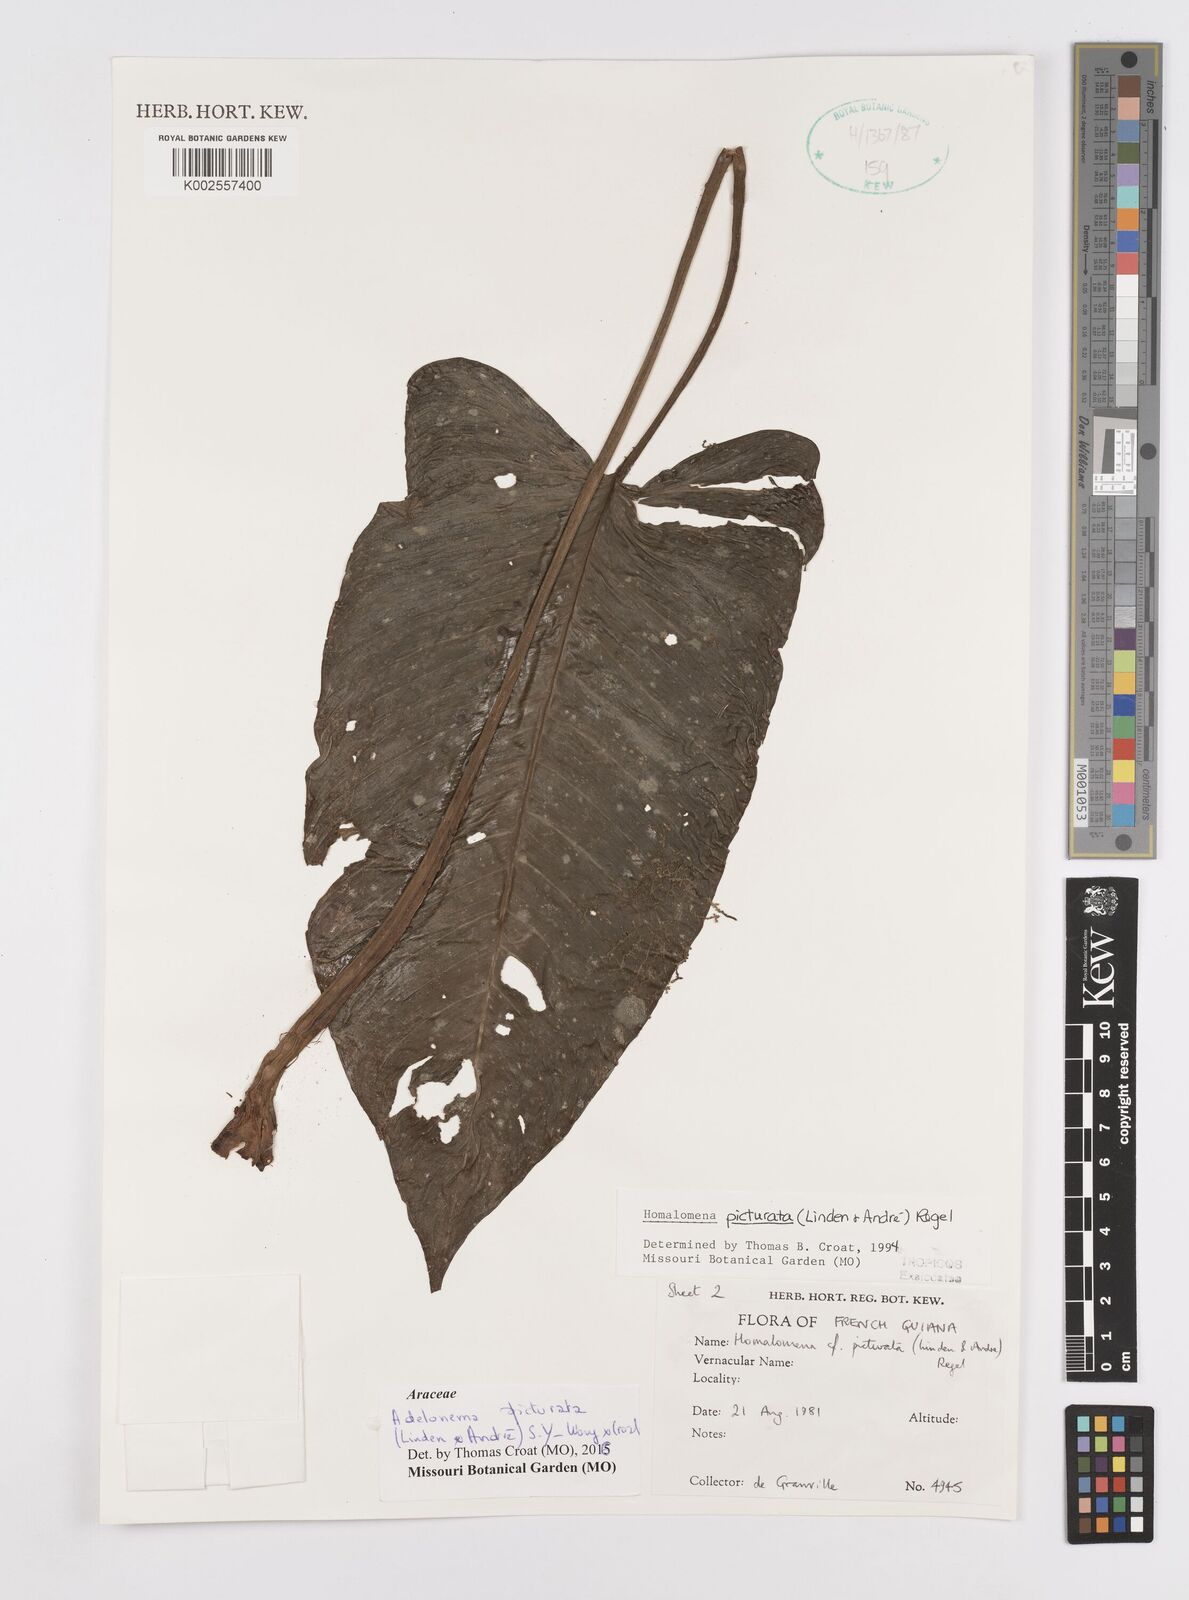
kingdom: Plantae
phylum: Tracheophyta
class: Liliopsida
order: Alismatales
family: Araceae
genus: Adelonema
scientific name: Adelonema picturatum
